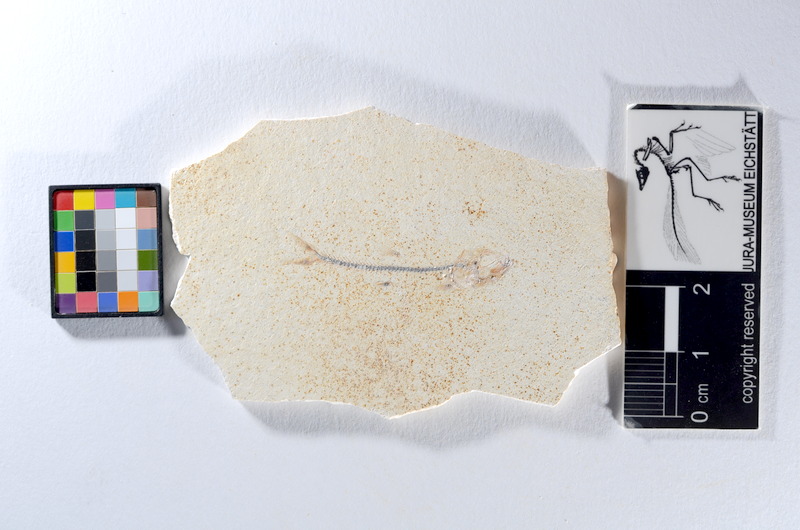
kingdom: Animalia
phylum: Chordata
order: Salmoniformes
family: Orthogonikleithridae
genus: Orthogonikleithrus
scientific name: Orthogonikleithrus hoelli
